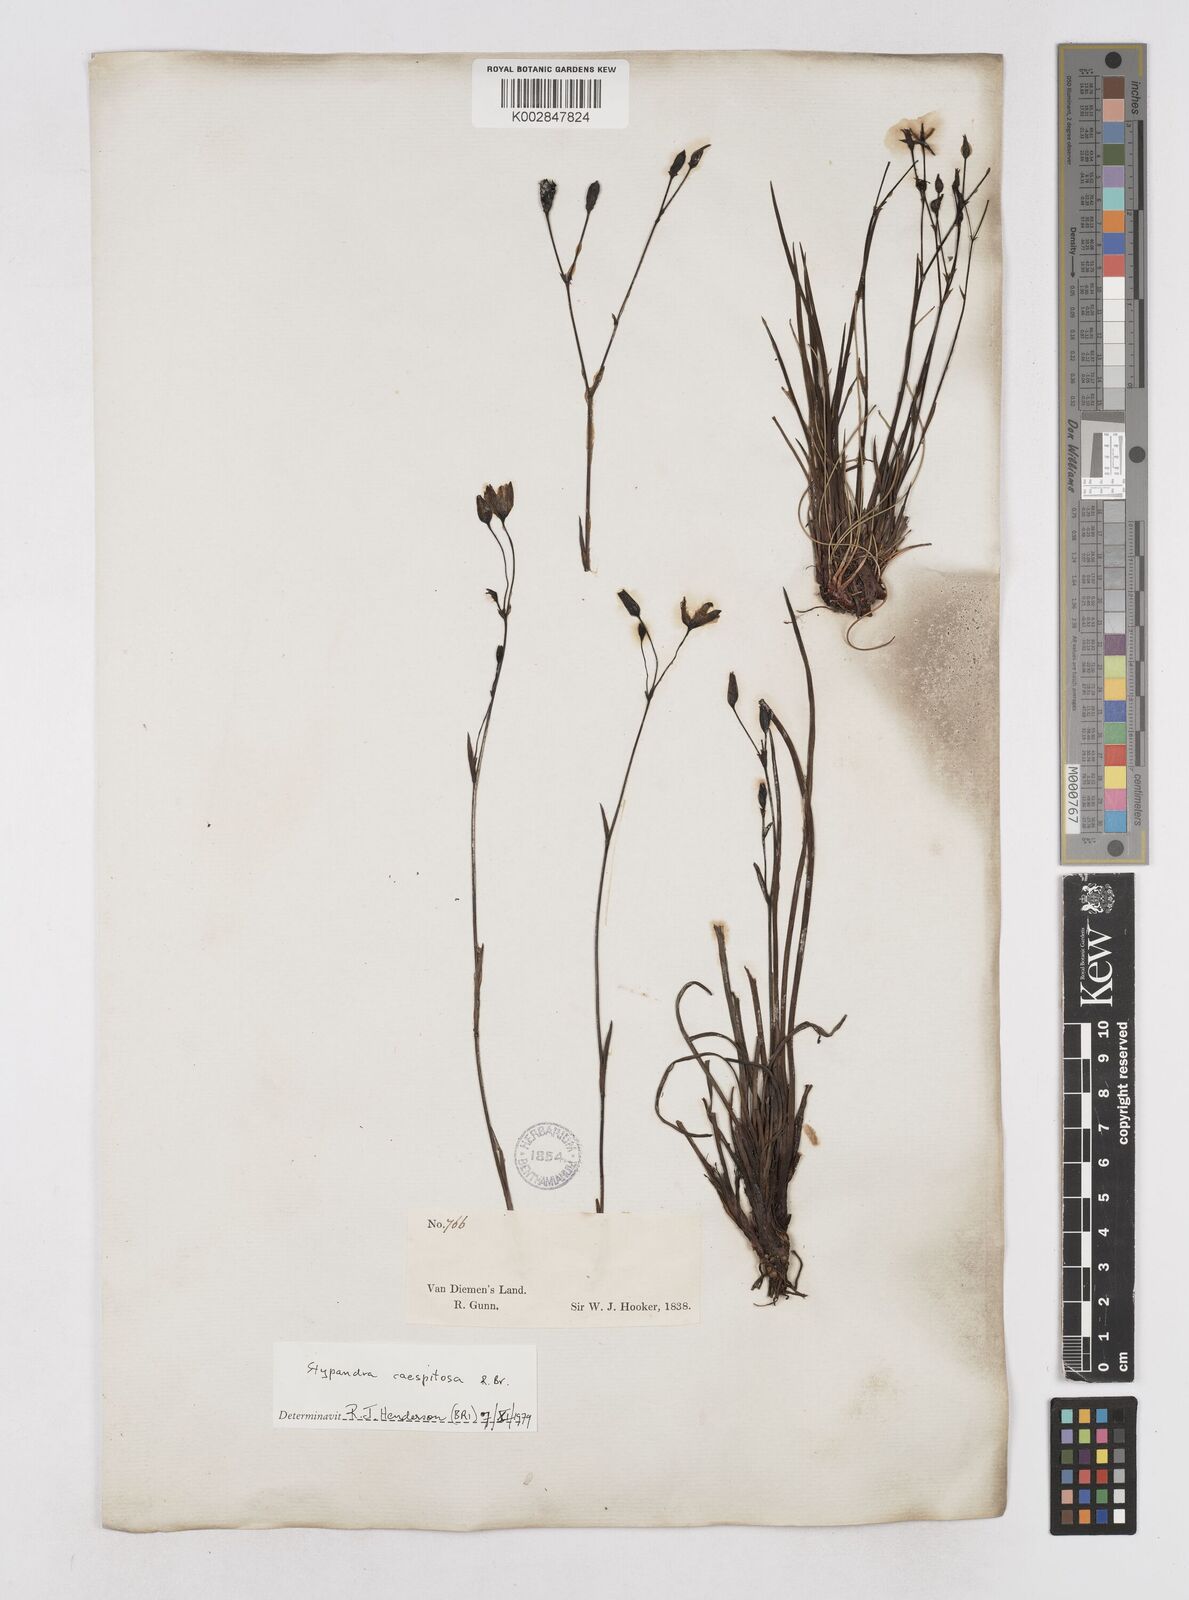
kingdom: Plantae
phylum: Tracheophyta
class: Liliopsida
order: Asparagales
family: Asphodelaceae
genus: Thelionema
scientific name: Thelionema umbellatum
